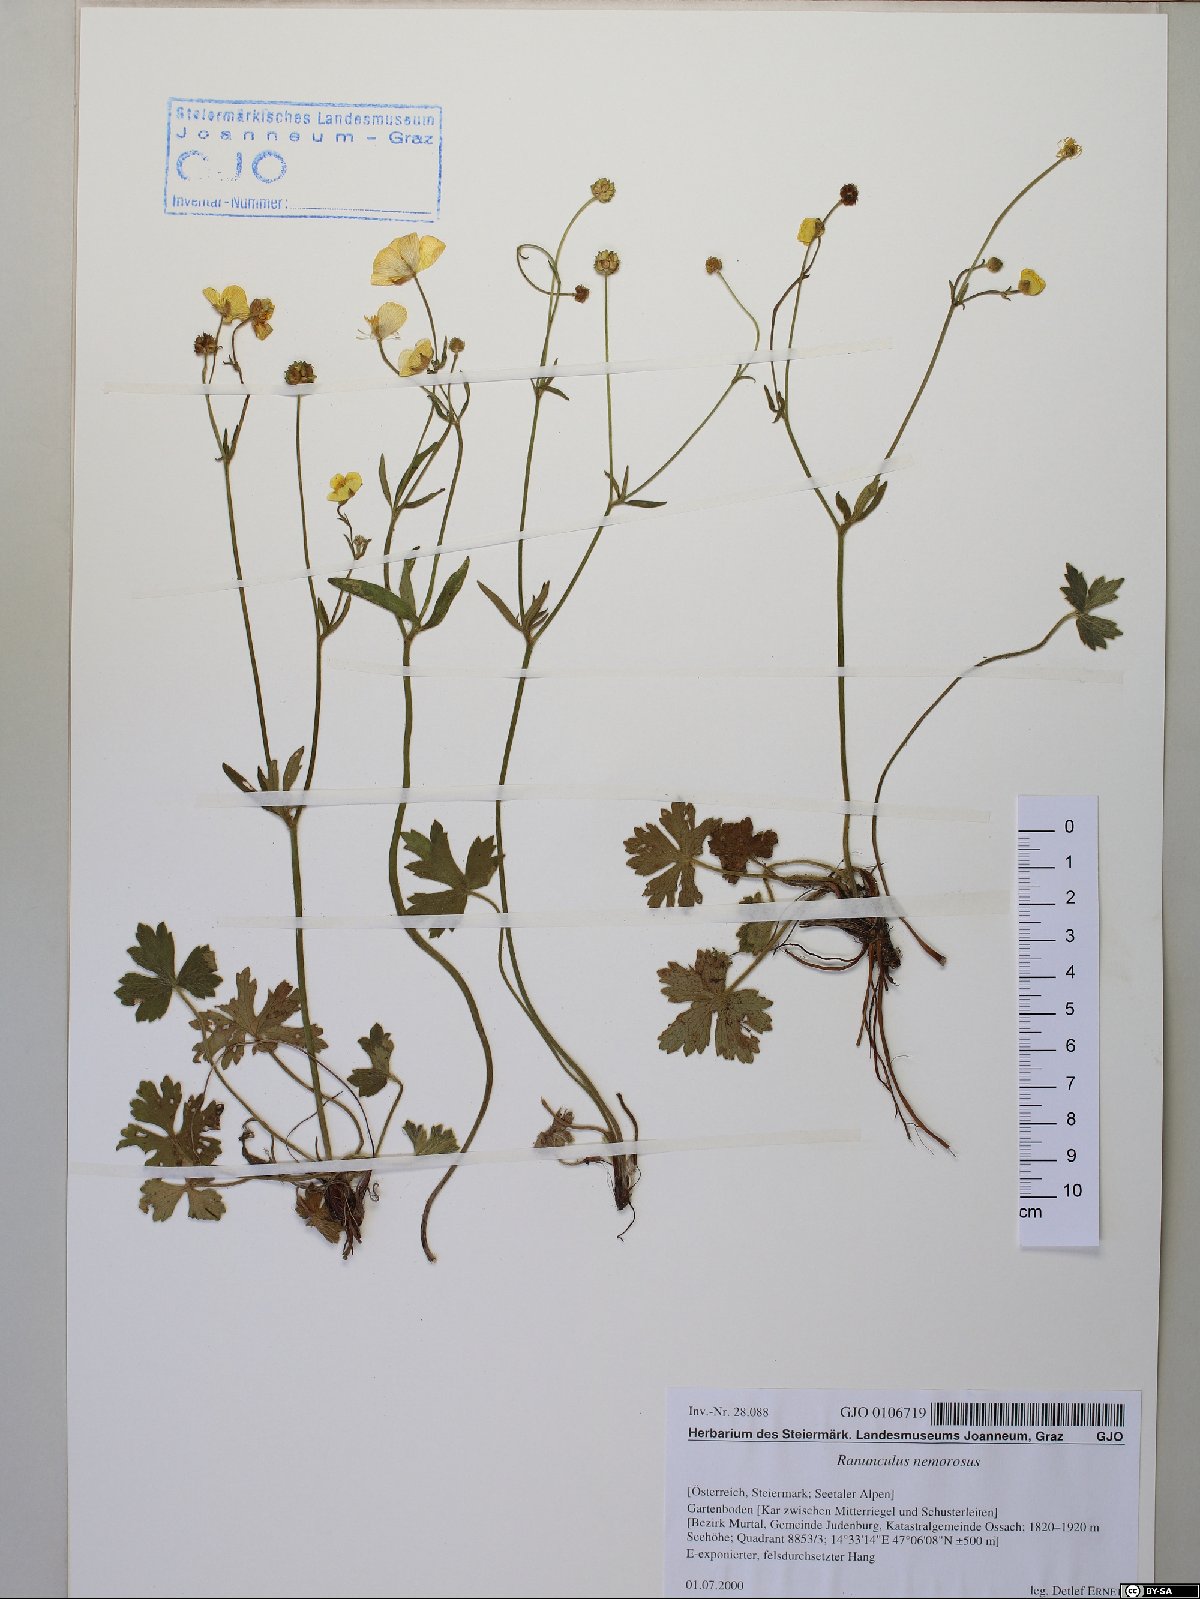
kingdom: Plantae
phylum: Tracheophyta
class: Magnoliopsida
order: Ranunculales
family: Ranunculaceae
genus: Ranunculus
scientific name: Ranunculus polyanthemos
